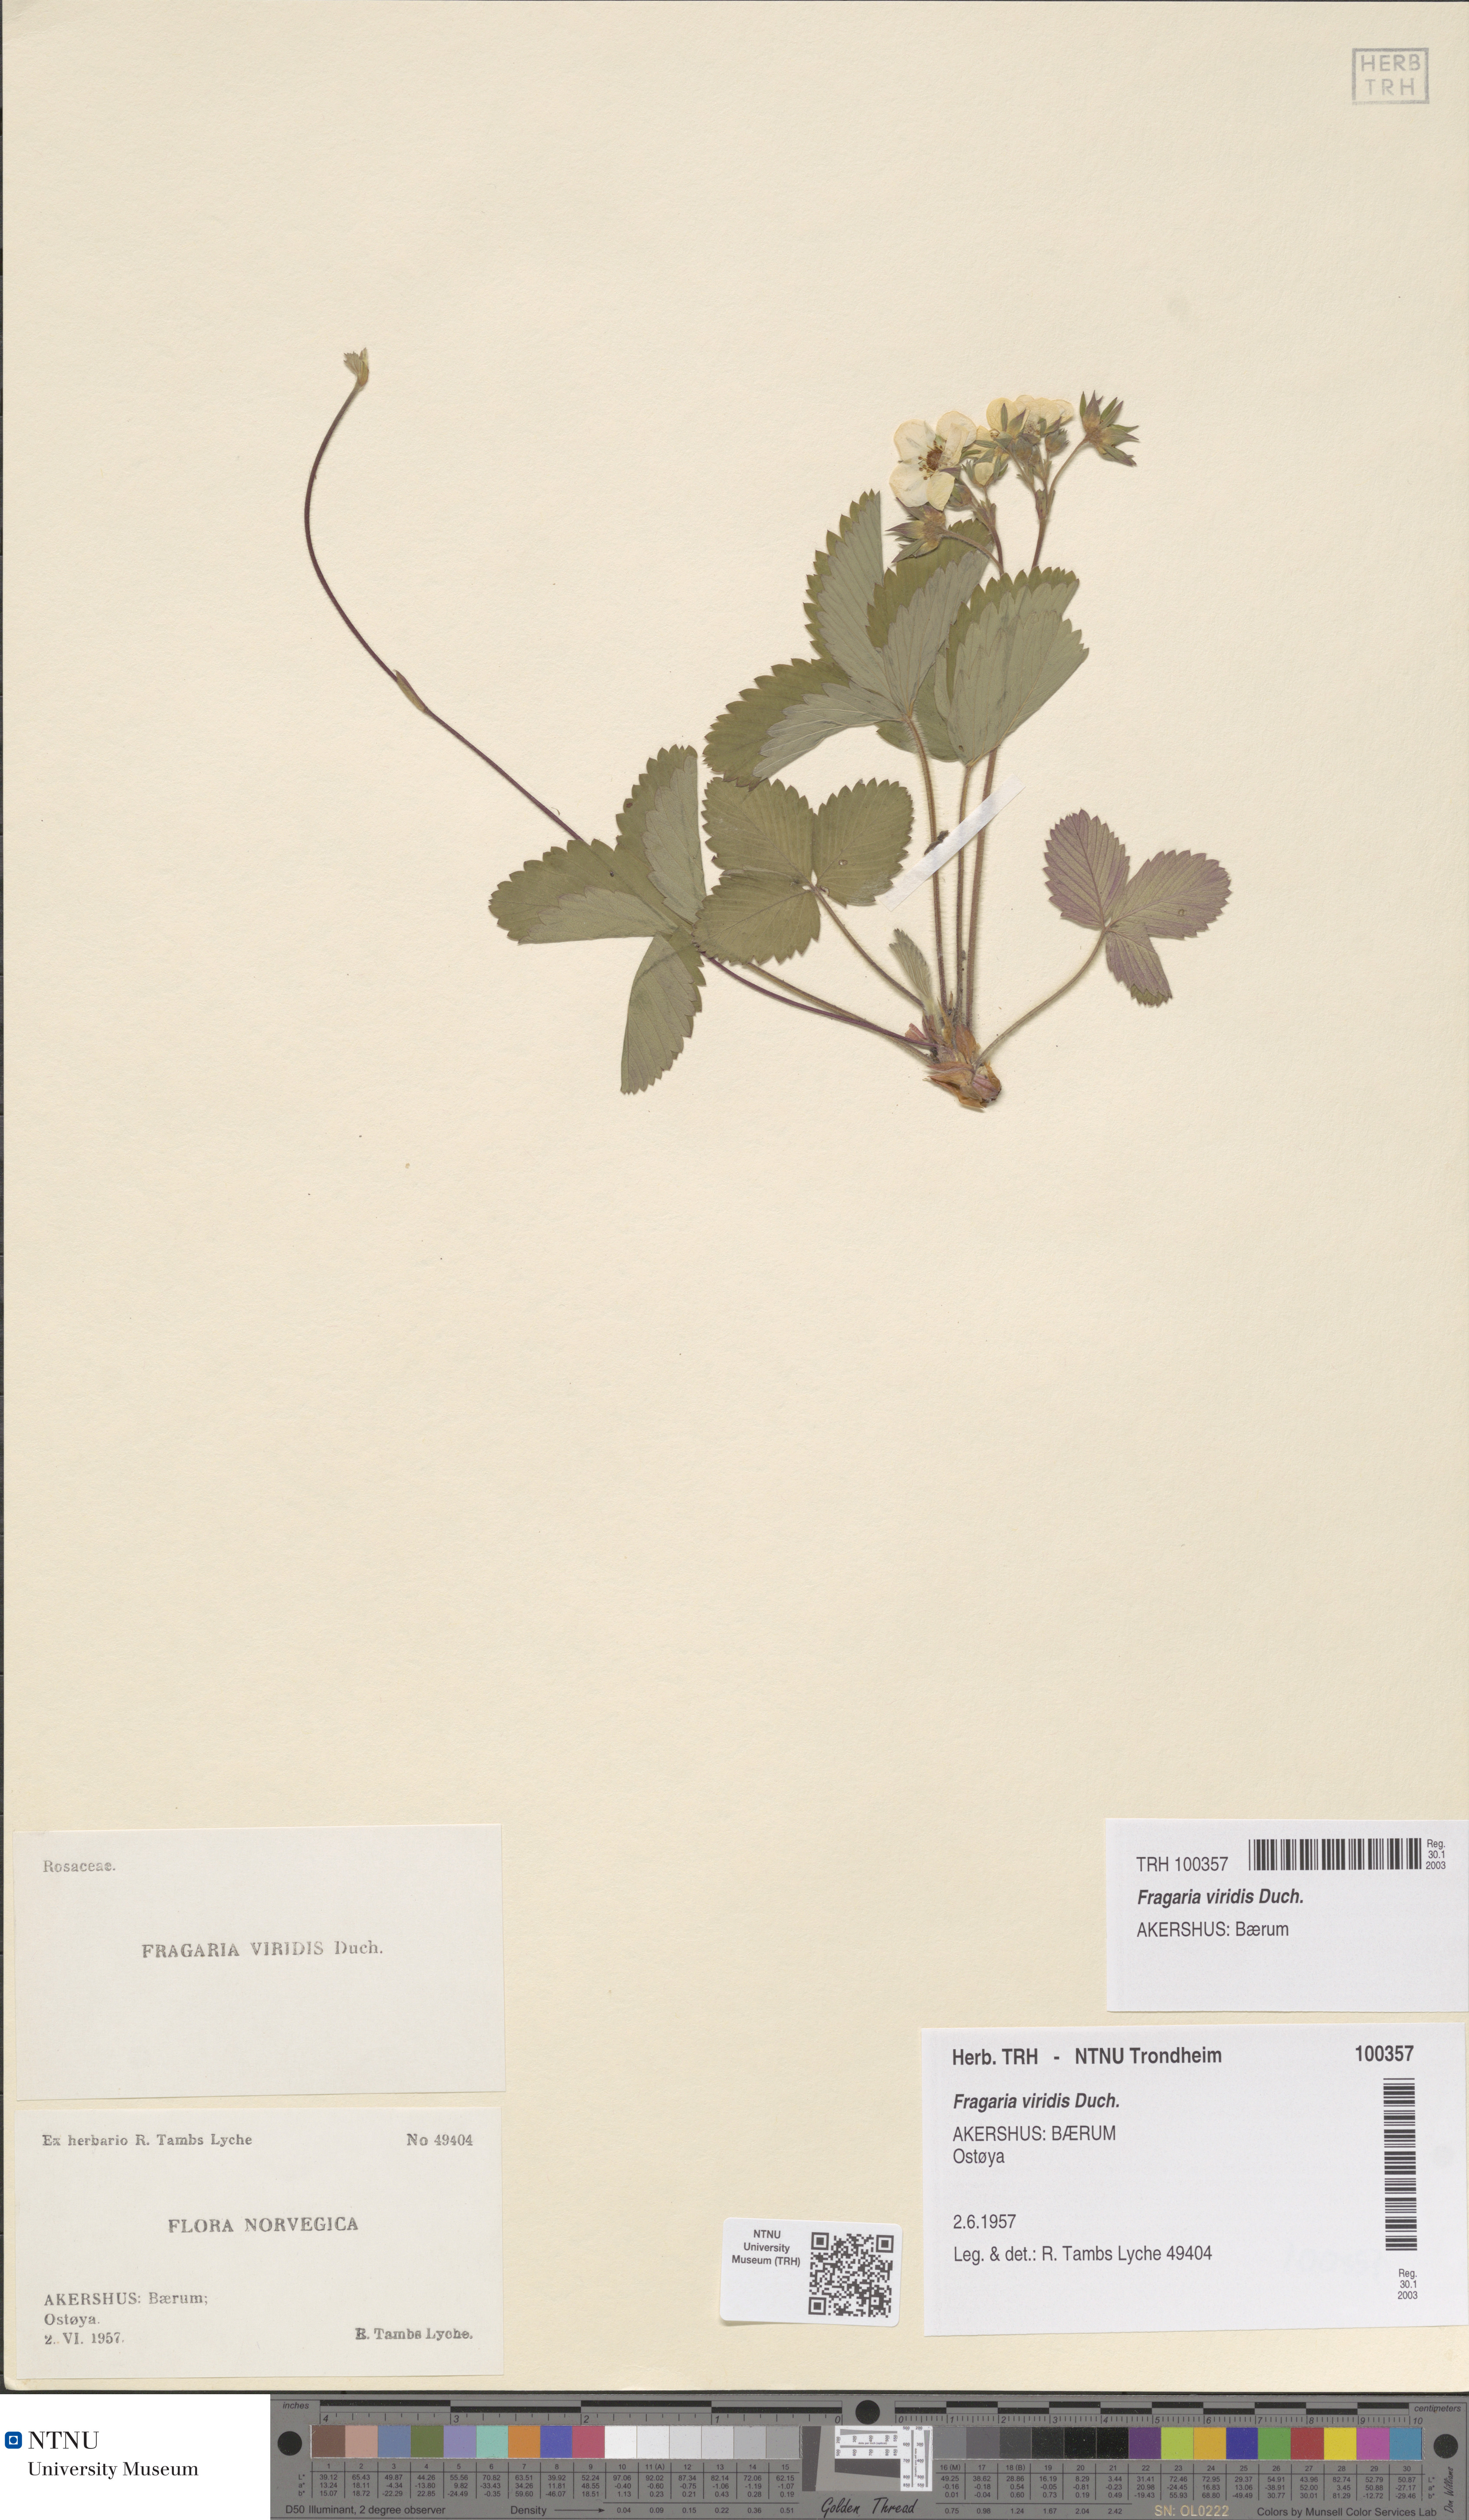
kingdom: Plantae
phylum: Tracheophyta
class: Magnoliopsida
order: Rosales
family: Rosaceae
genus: Fragaria
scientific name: Fragaria viridis
